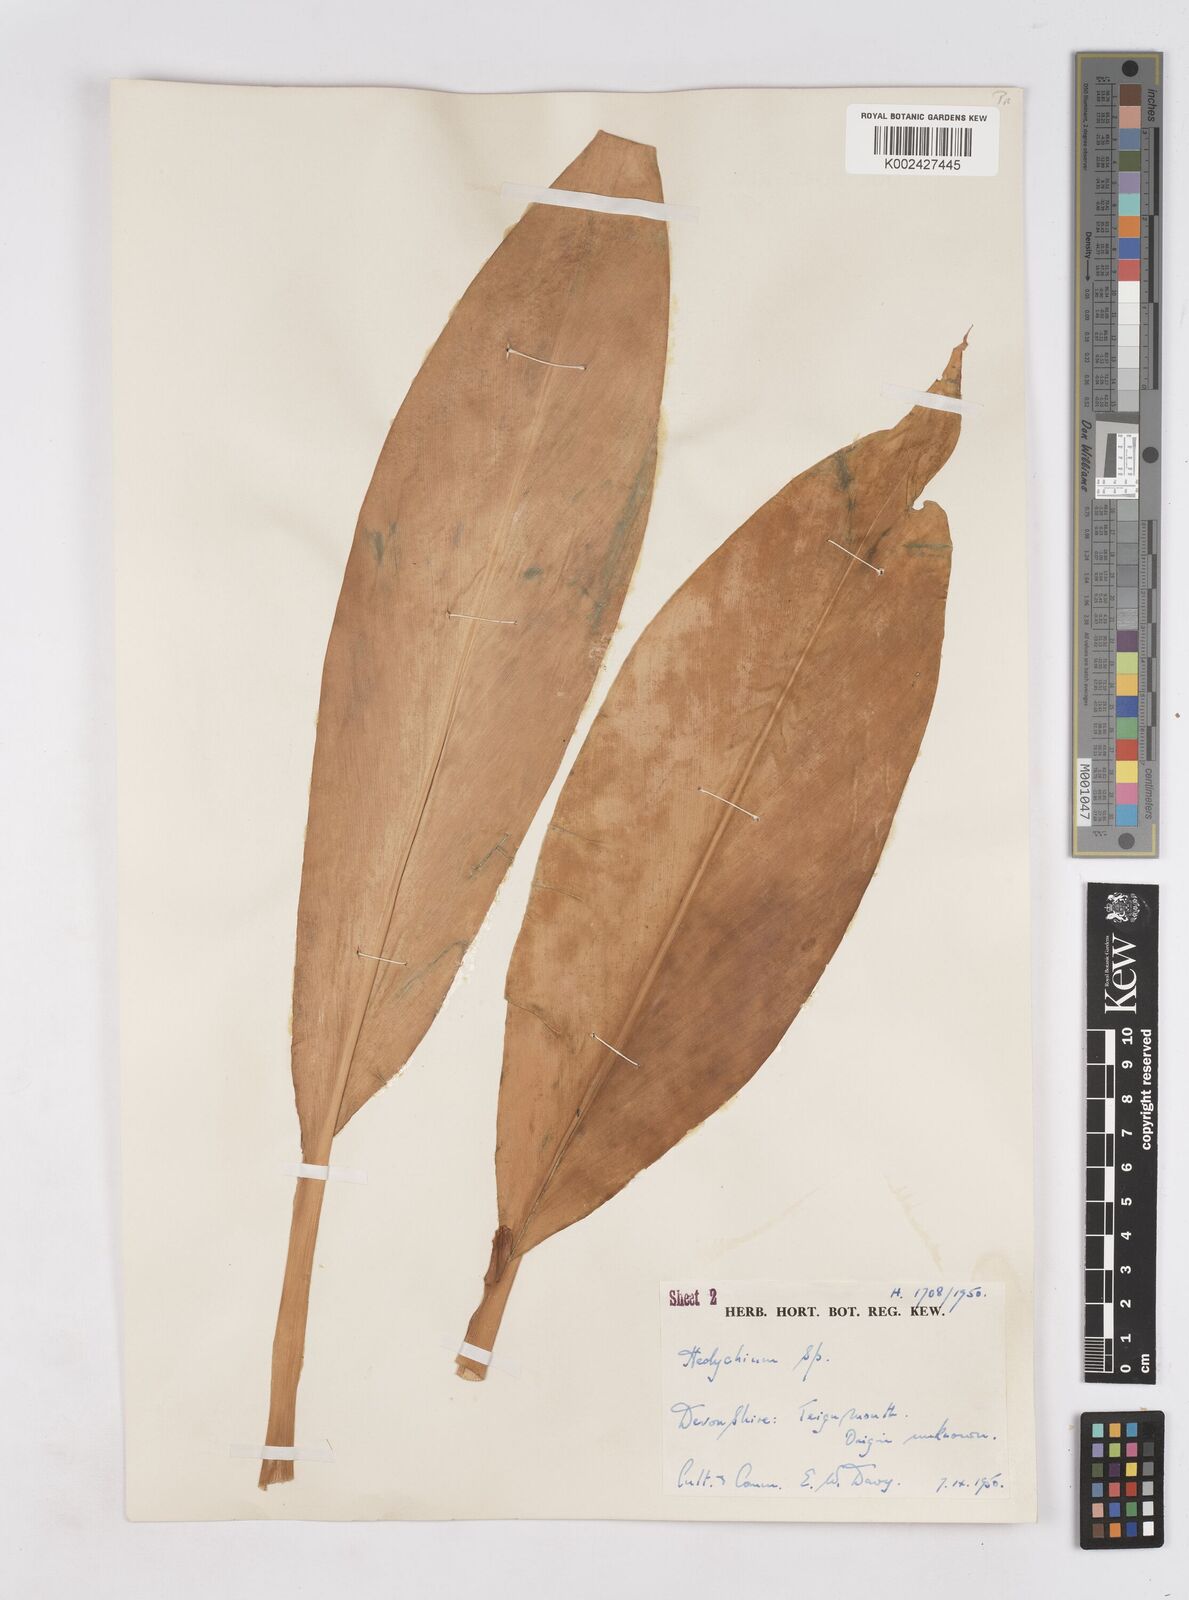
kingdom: Plantae
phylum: Tracheophyta
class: Liliopsida
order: Zingiberales
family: Zingiberaceae
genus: Hedychium
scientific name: Hedychium
